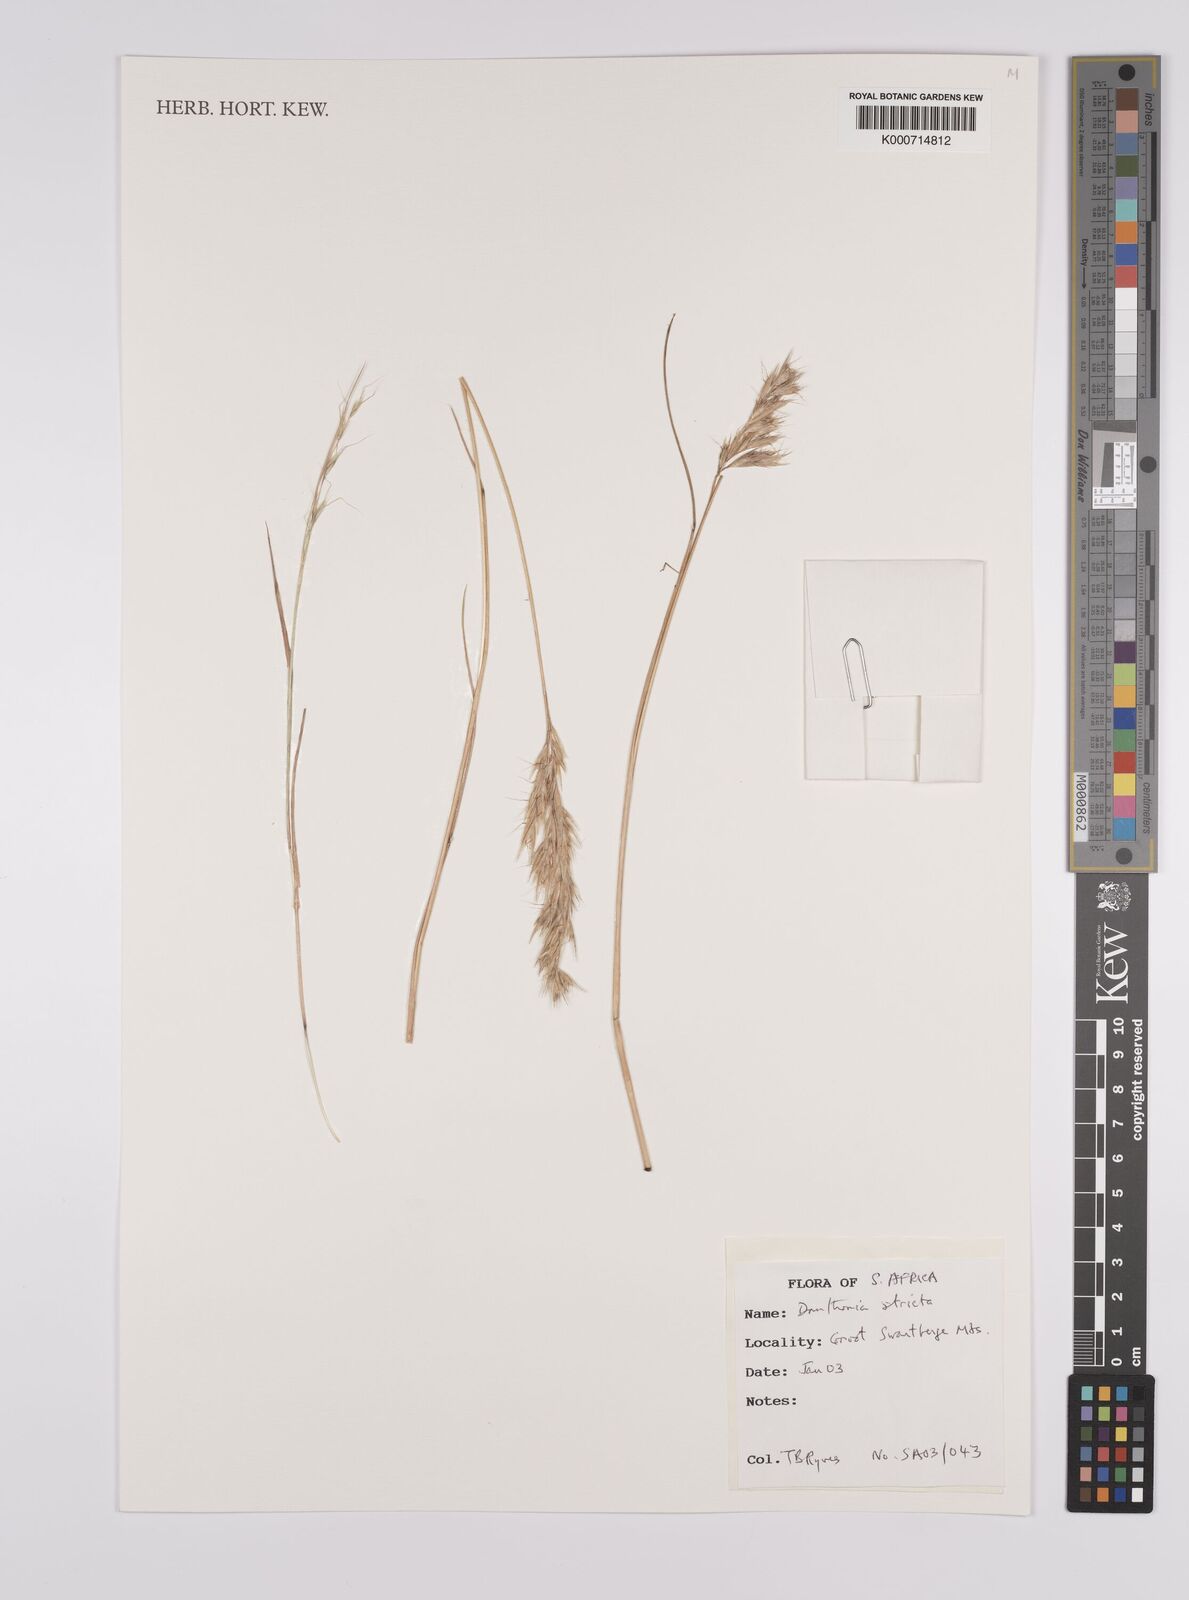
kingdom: Plantae
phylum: Tracheophyta
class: Liliopsida
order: Poales
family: Poaceae
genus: Rytidosperma
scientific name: Rytidosperma
